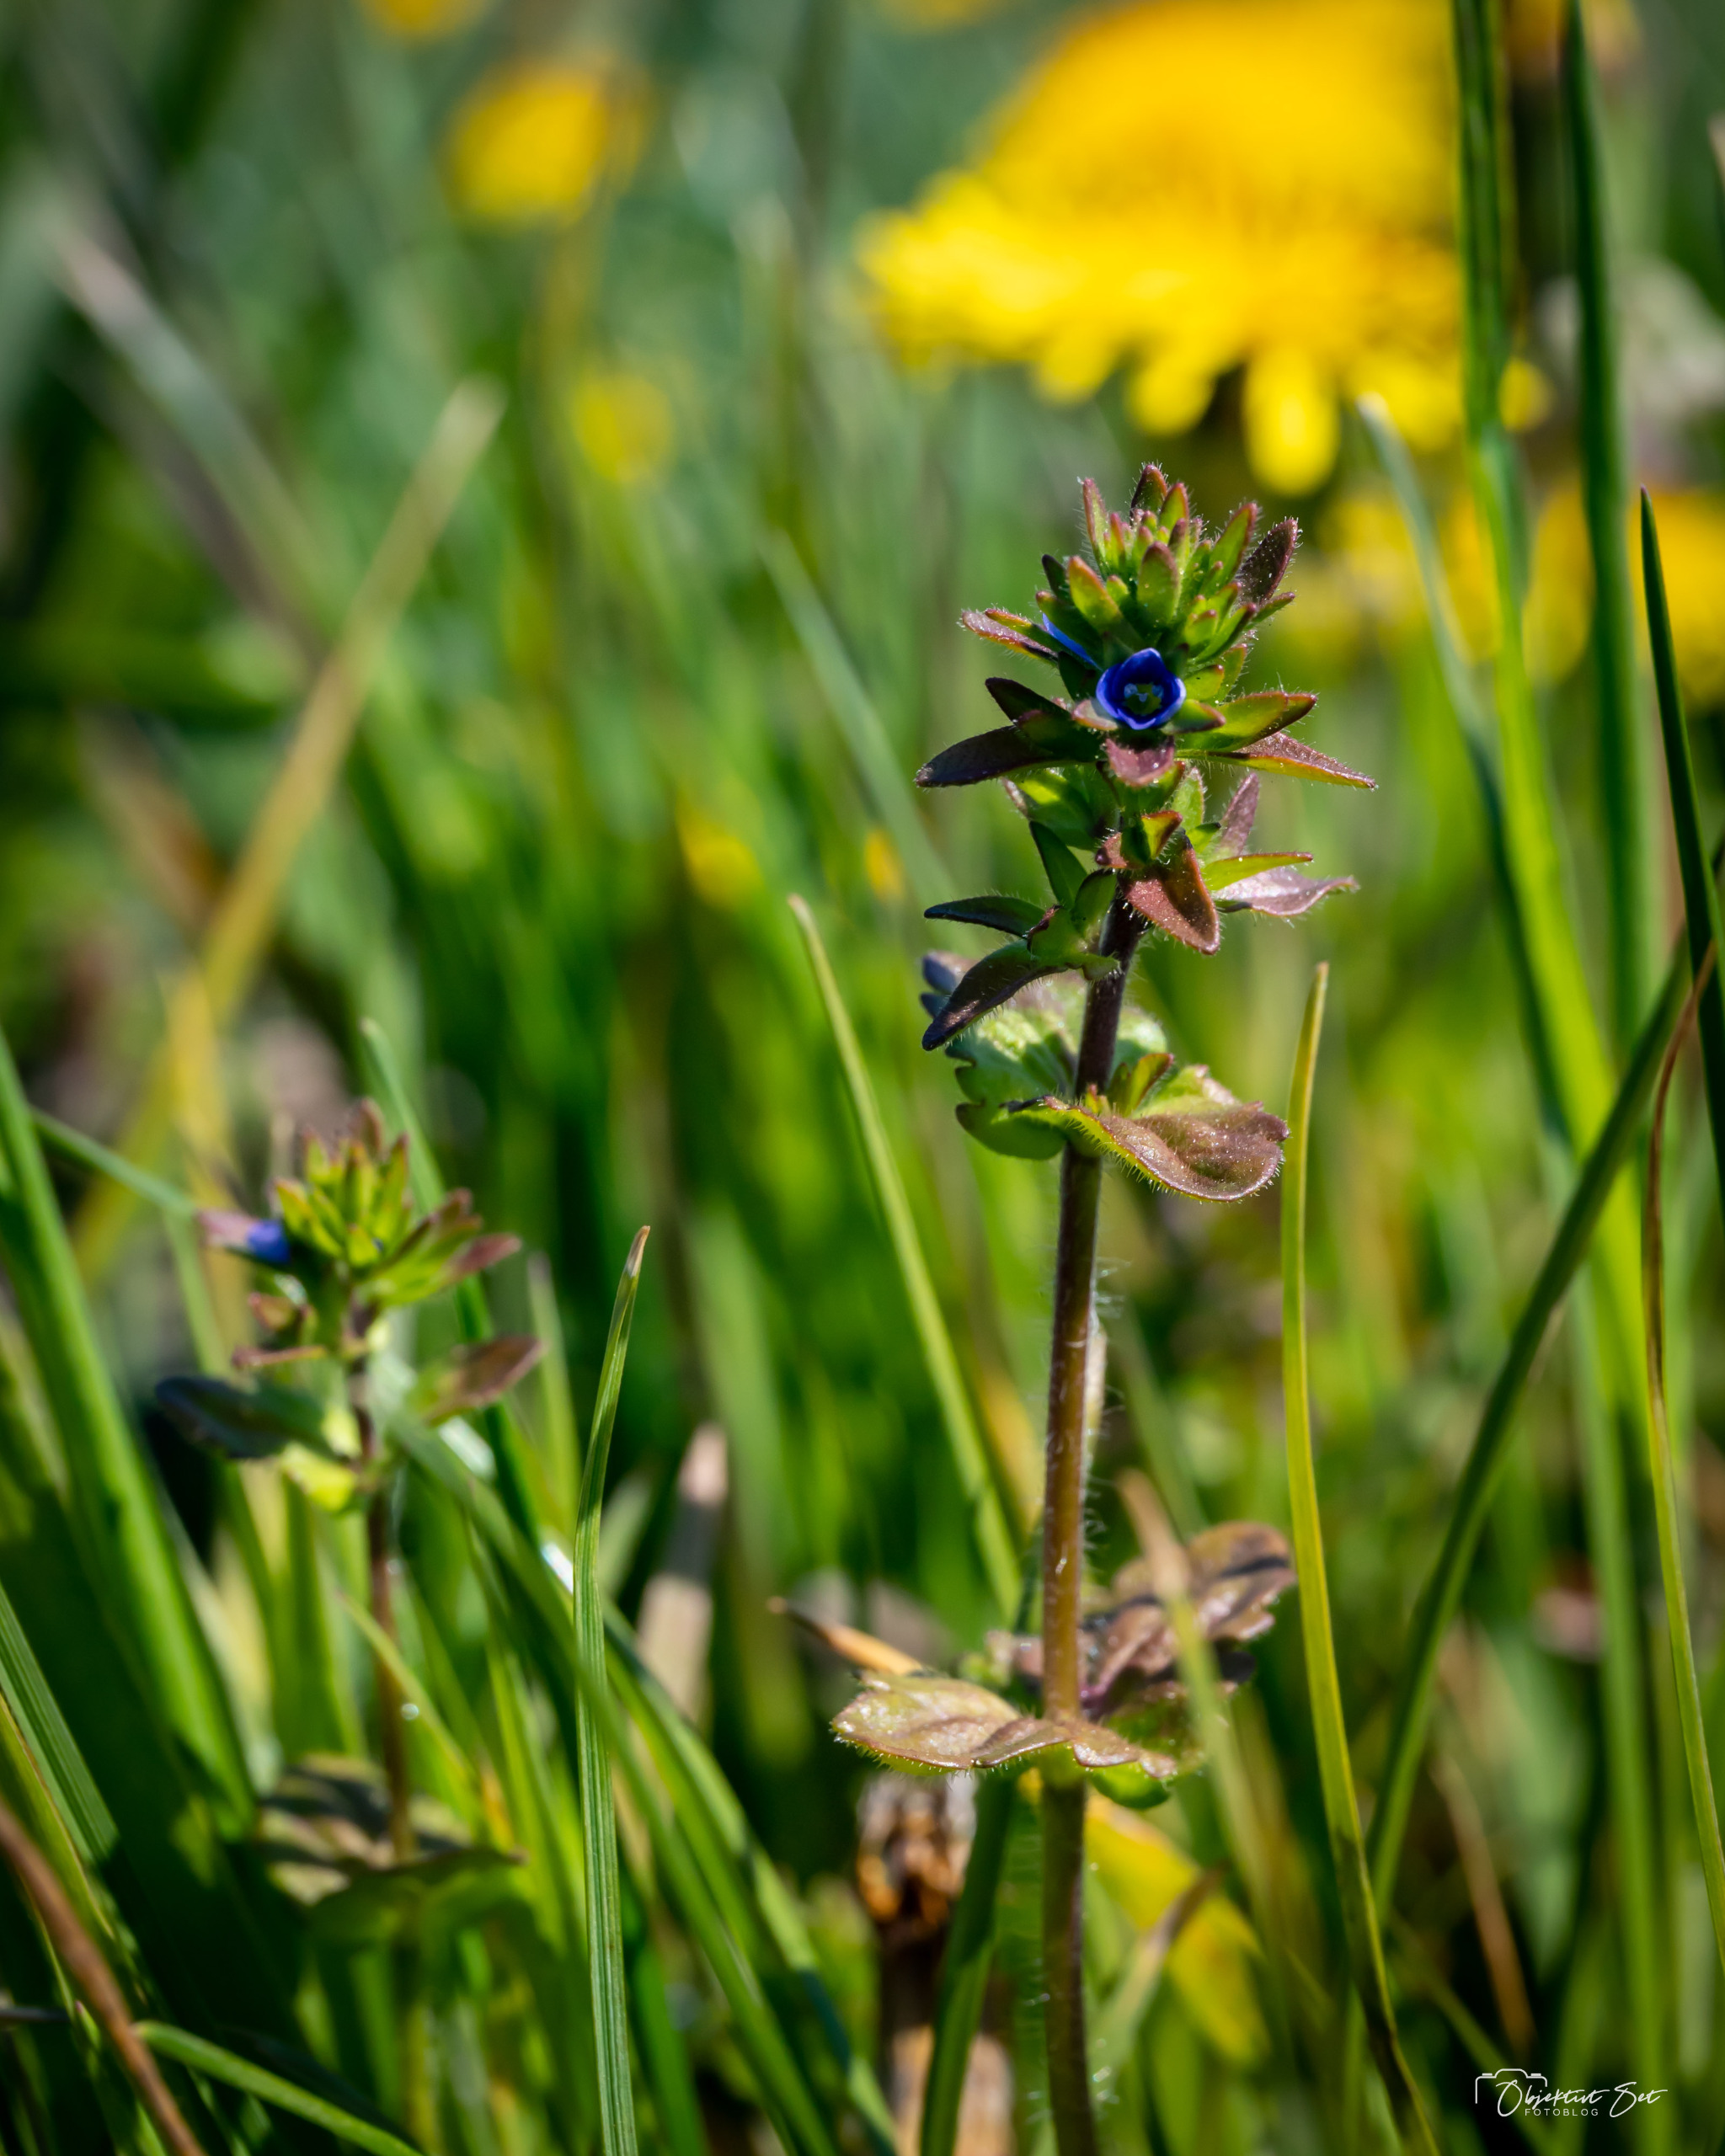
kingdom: Plantae
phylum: Tracheophyta
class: Magnoliopsida
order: Lamiales
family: Plantaginaceae
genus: Veronica
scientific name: Veronica arvensis
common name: Mark-ærenpris
